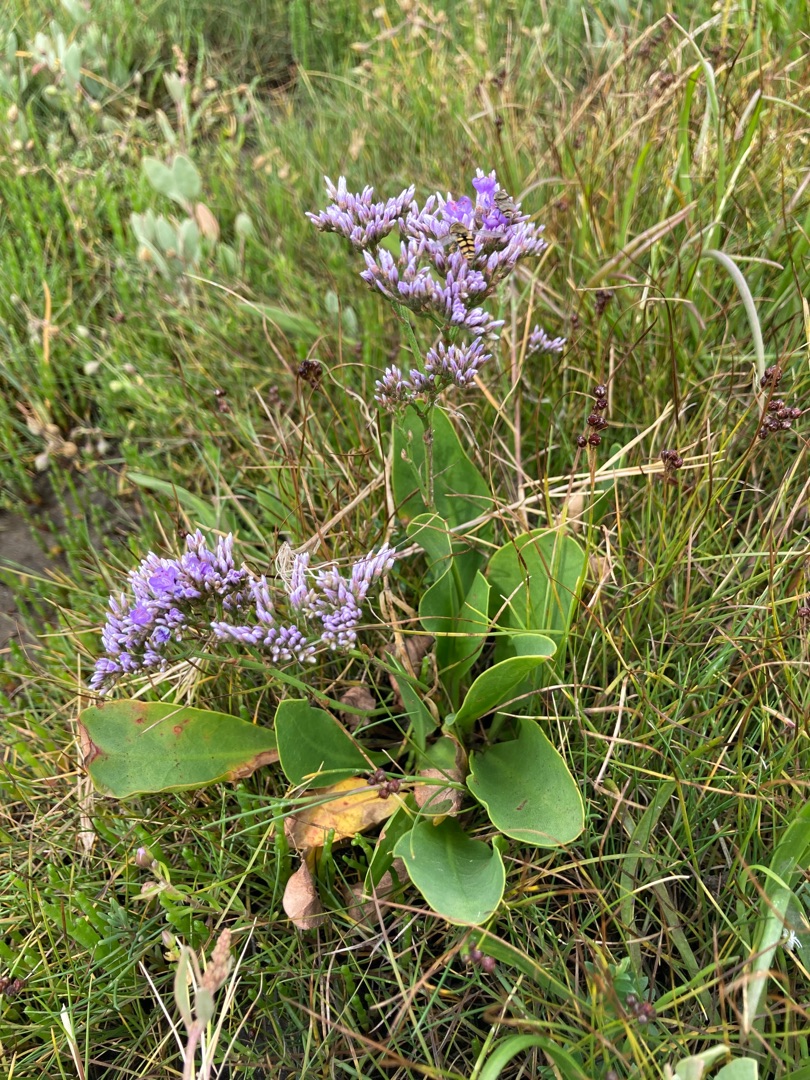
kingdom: Plantae
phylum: Tracheophyta
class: Magnoliopsida
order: Caryophyllales
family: Plumbaginaceae
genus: Limonium
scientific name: Limonium vulgare
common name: Tætblomstret hindebæger
